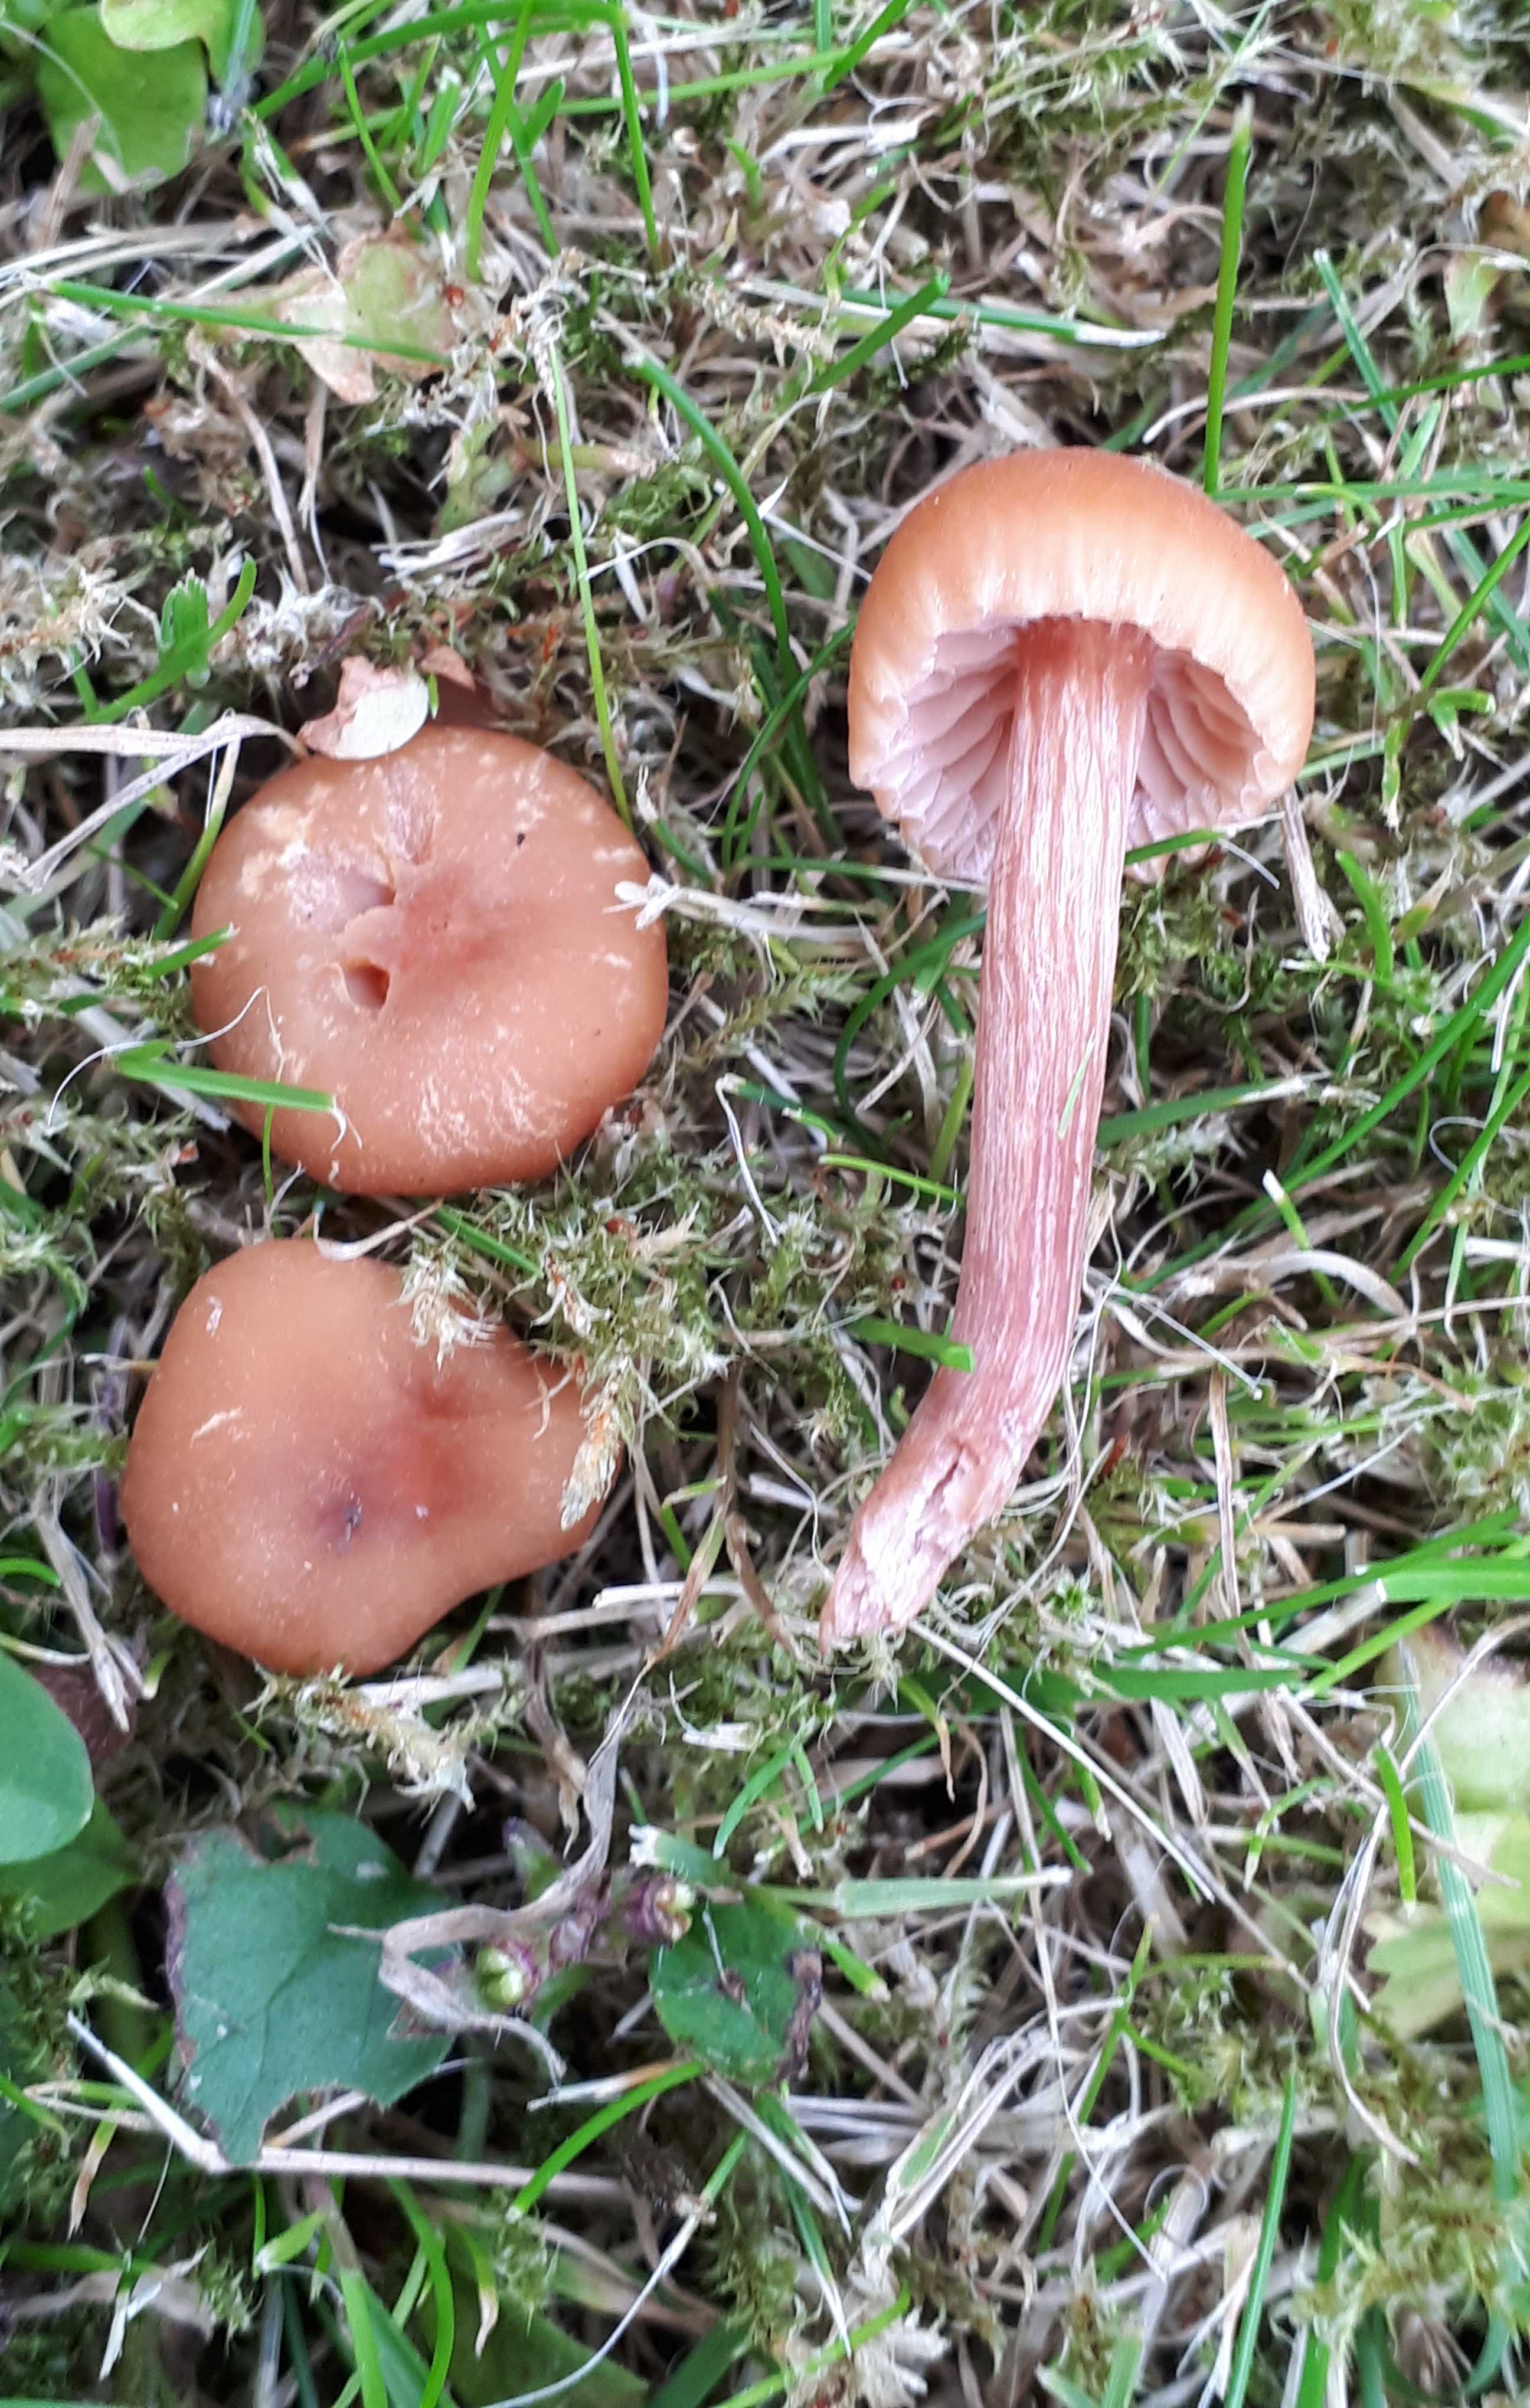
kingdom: Fungi
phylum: Basidiomycota
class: Agaricomycetes
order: Agaricales
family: Hydnangiaceae
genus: Laccaria
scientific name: Laccaria laccata
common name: rød ametysthat
